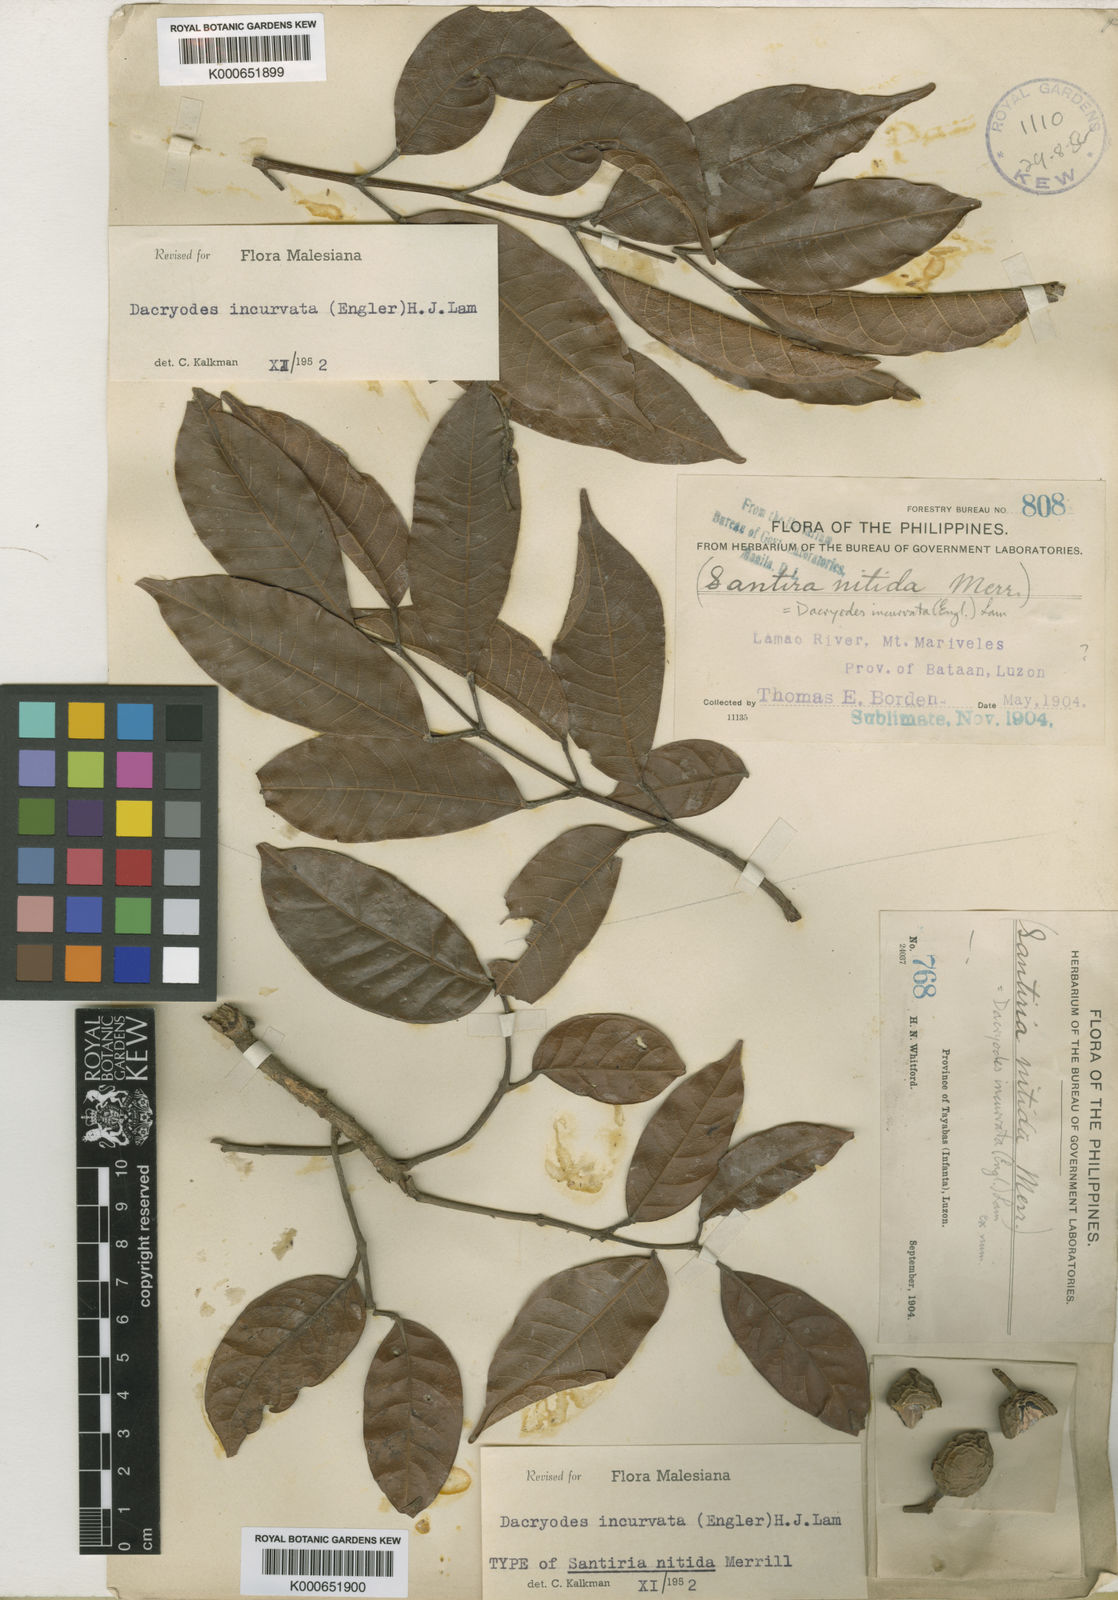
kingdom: Plantae
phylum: Tracheophyta
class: Magnoliopsida
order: Sapindales
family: Burseraceae
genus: Dacryodes
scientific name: Dacryodes incurvata
